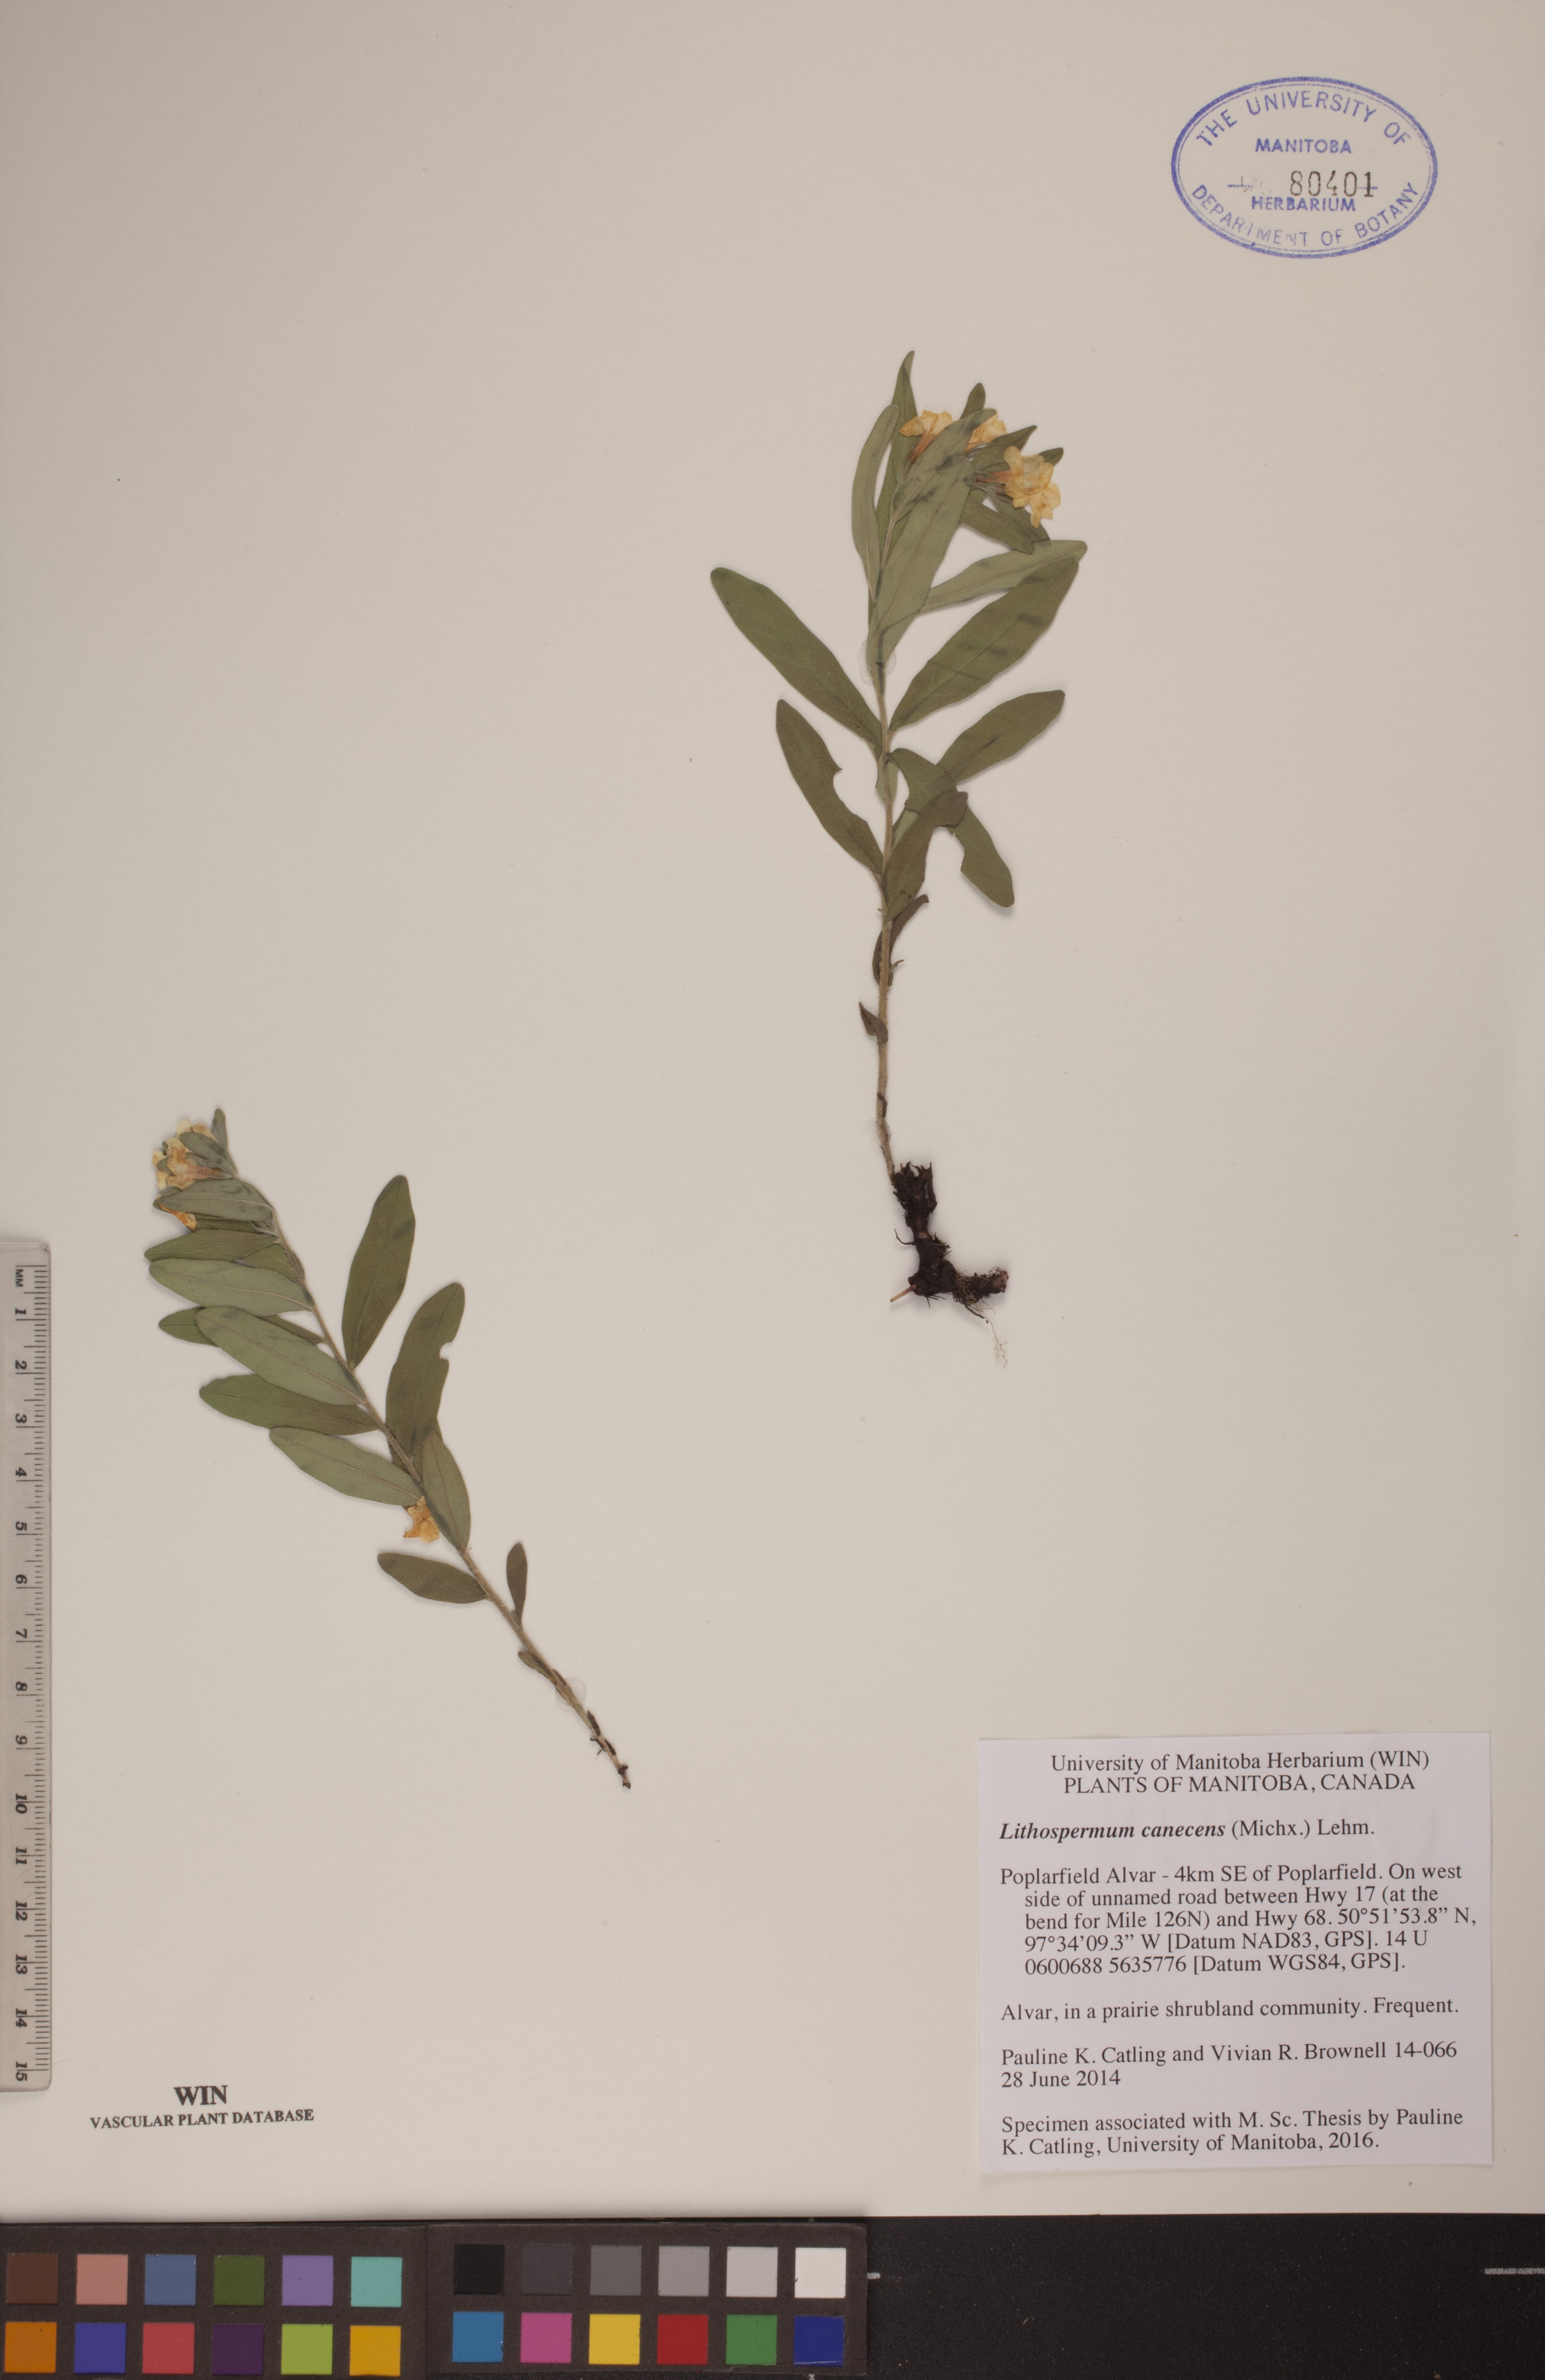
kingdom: Plantae
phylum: Tracheophyta
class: Magnoliopsida
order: Boraginales
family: Boraginaceae
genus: Lithospermum
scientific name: Lithospermum canescens
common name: Hoary puccoon
